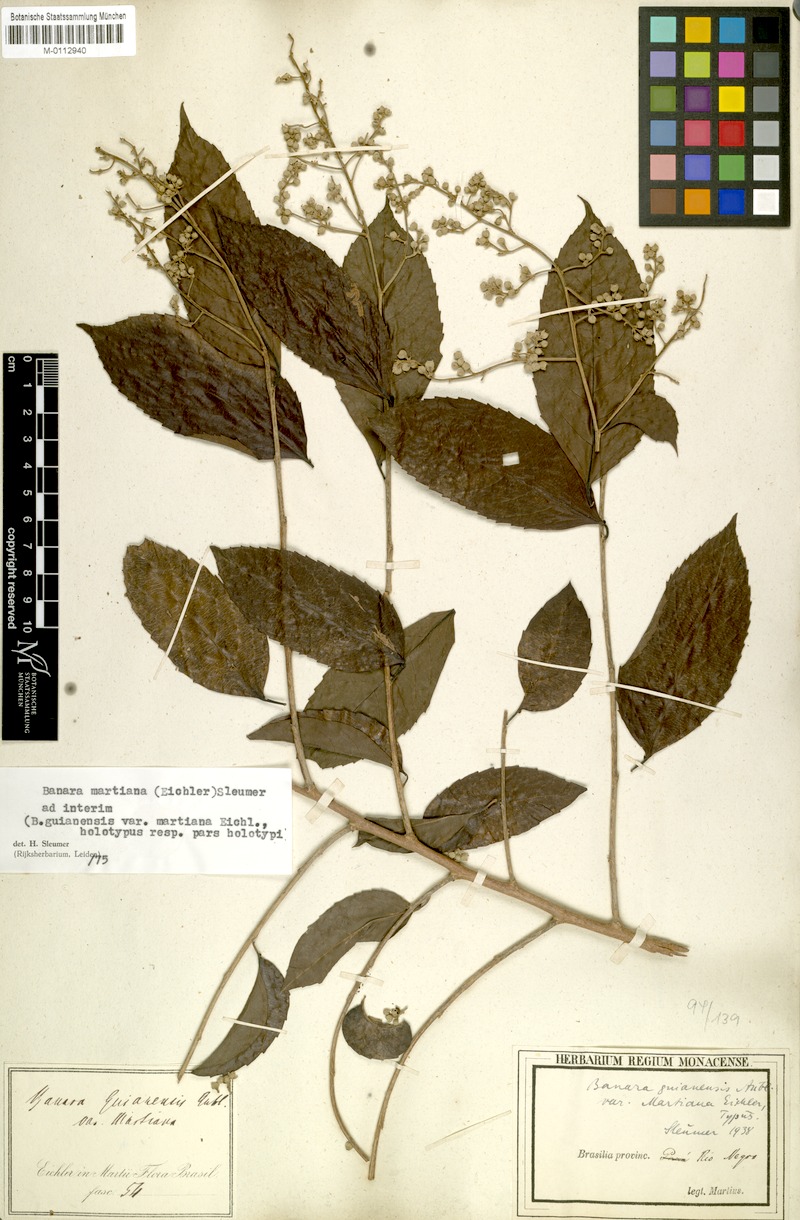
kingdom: Plantae
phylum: Tracheophyta
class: Magnoliopsida
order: Malpighiales
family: Salicaceae
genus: Banara
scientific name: Banara arguta
